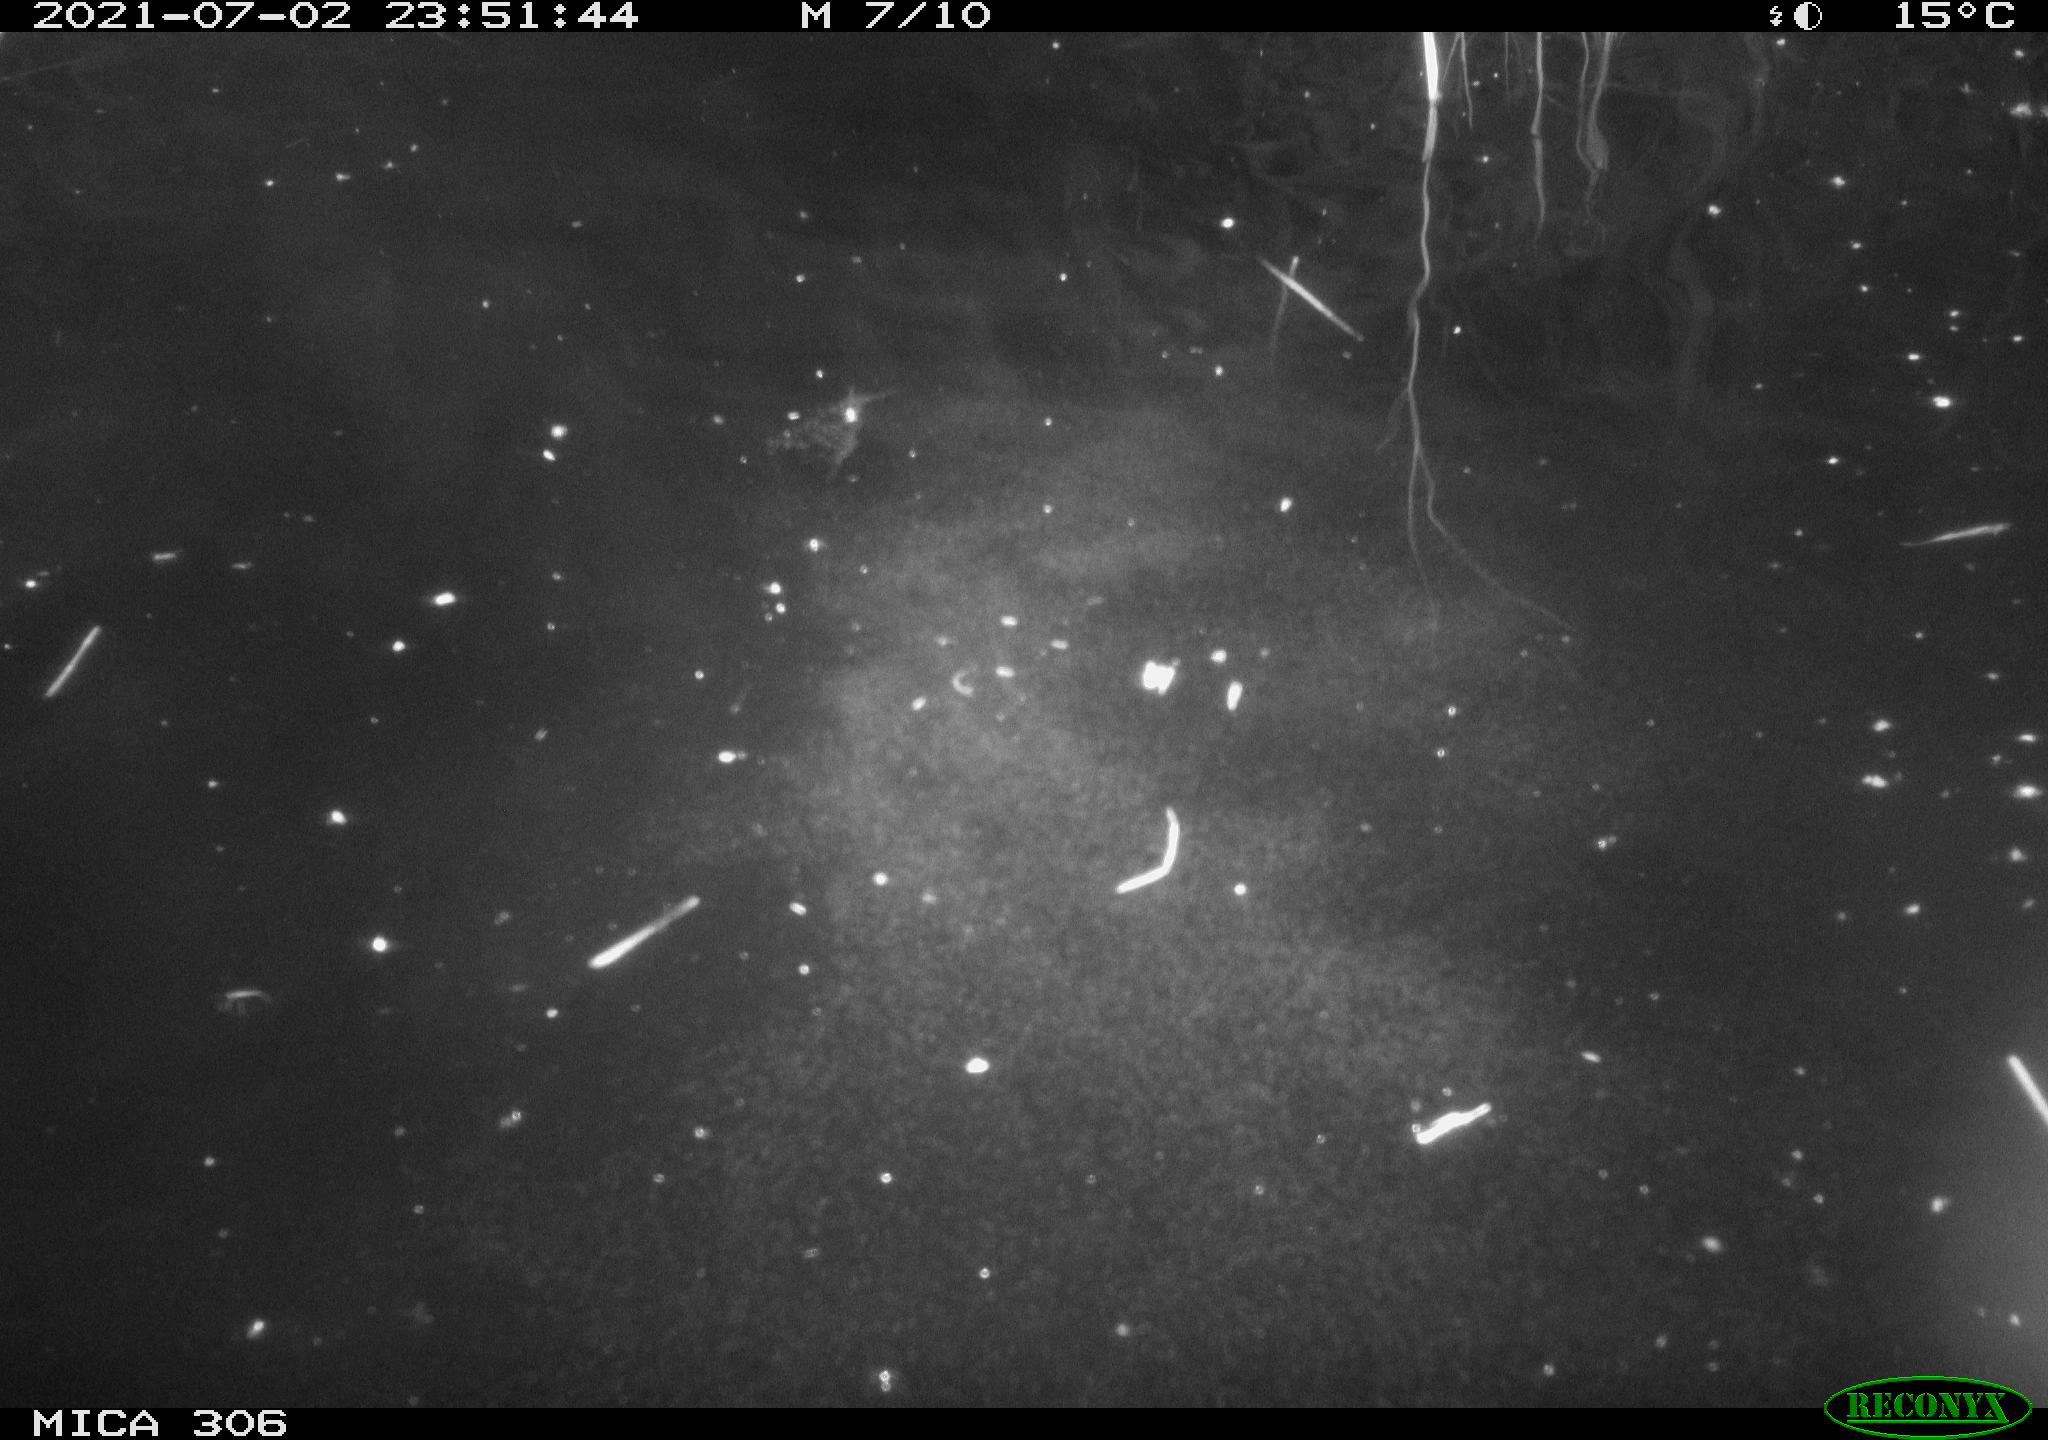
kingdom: Animalia
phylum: Chordata
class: Mammalia
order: Rodentia
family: Cricetidae
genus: Ondatra
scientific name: Ondatra zibethicus
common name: Muskrat
